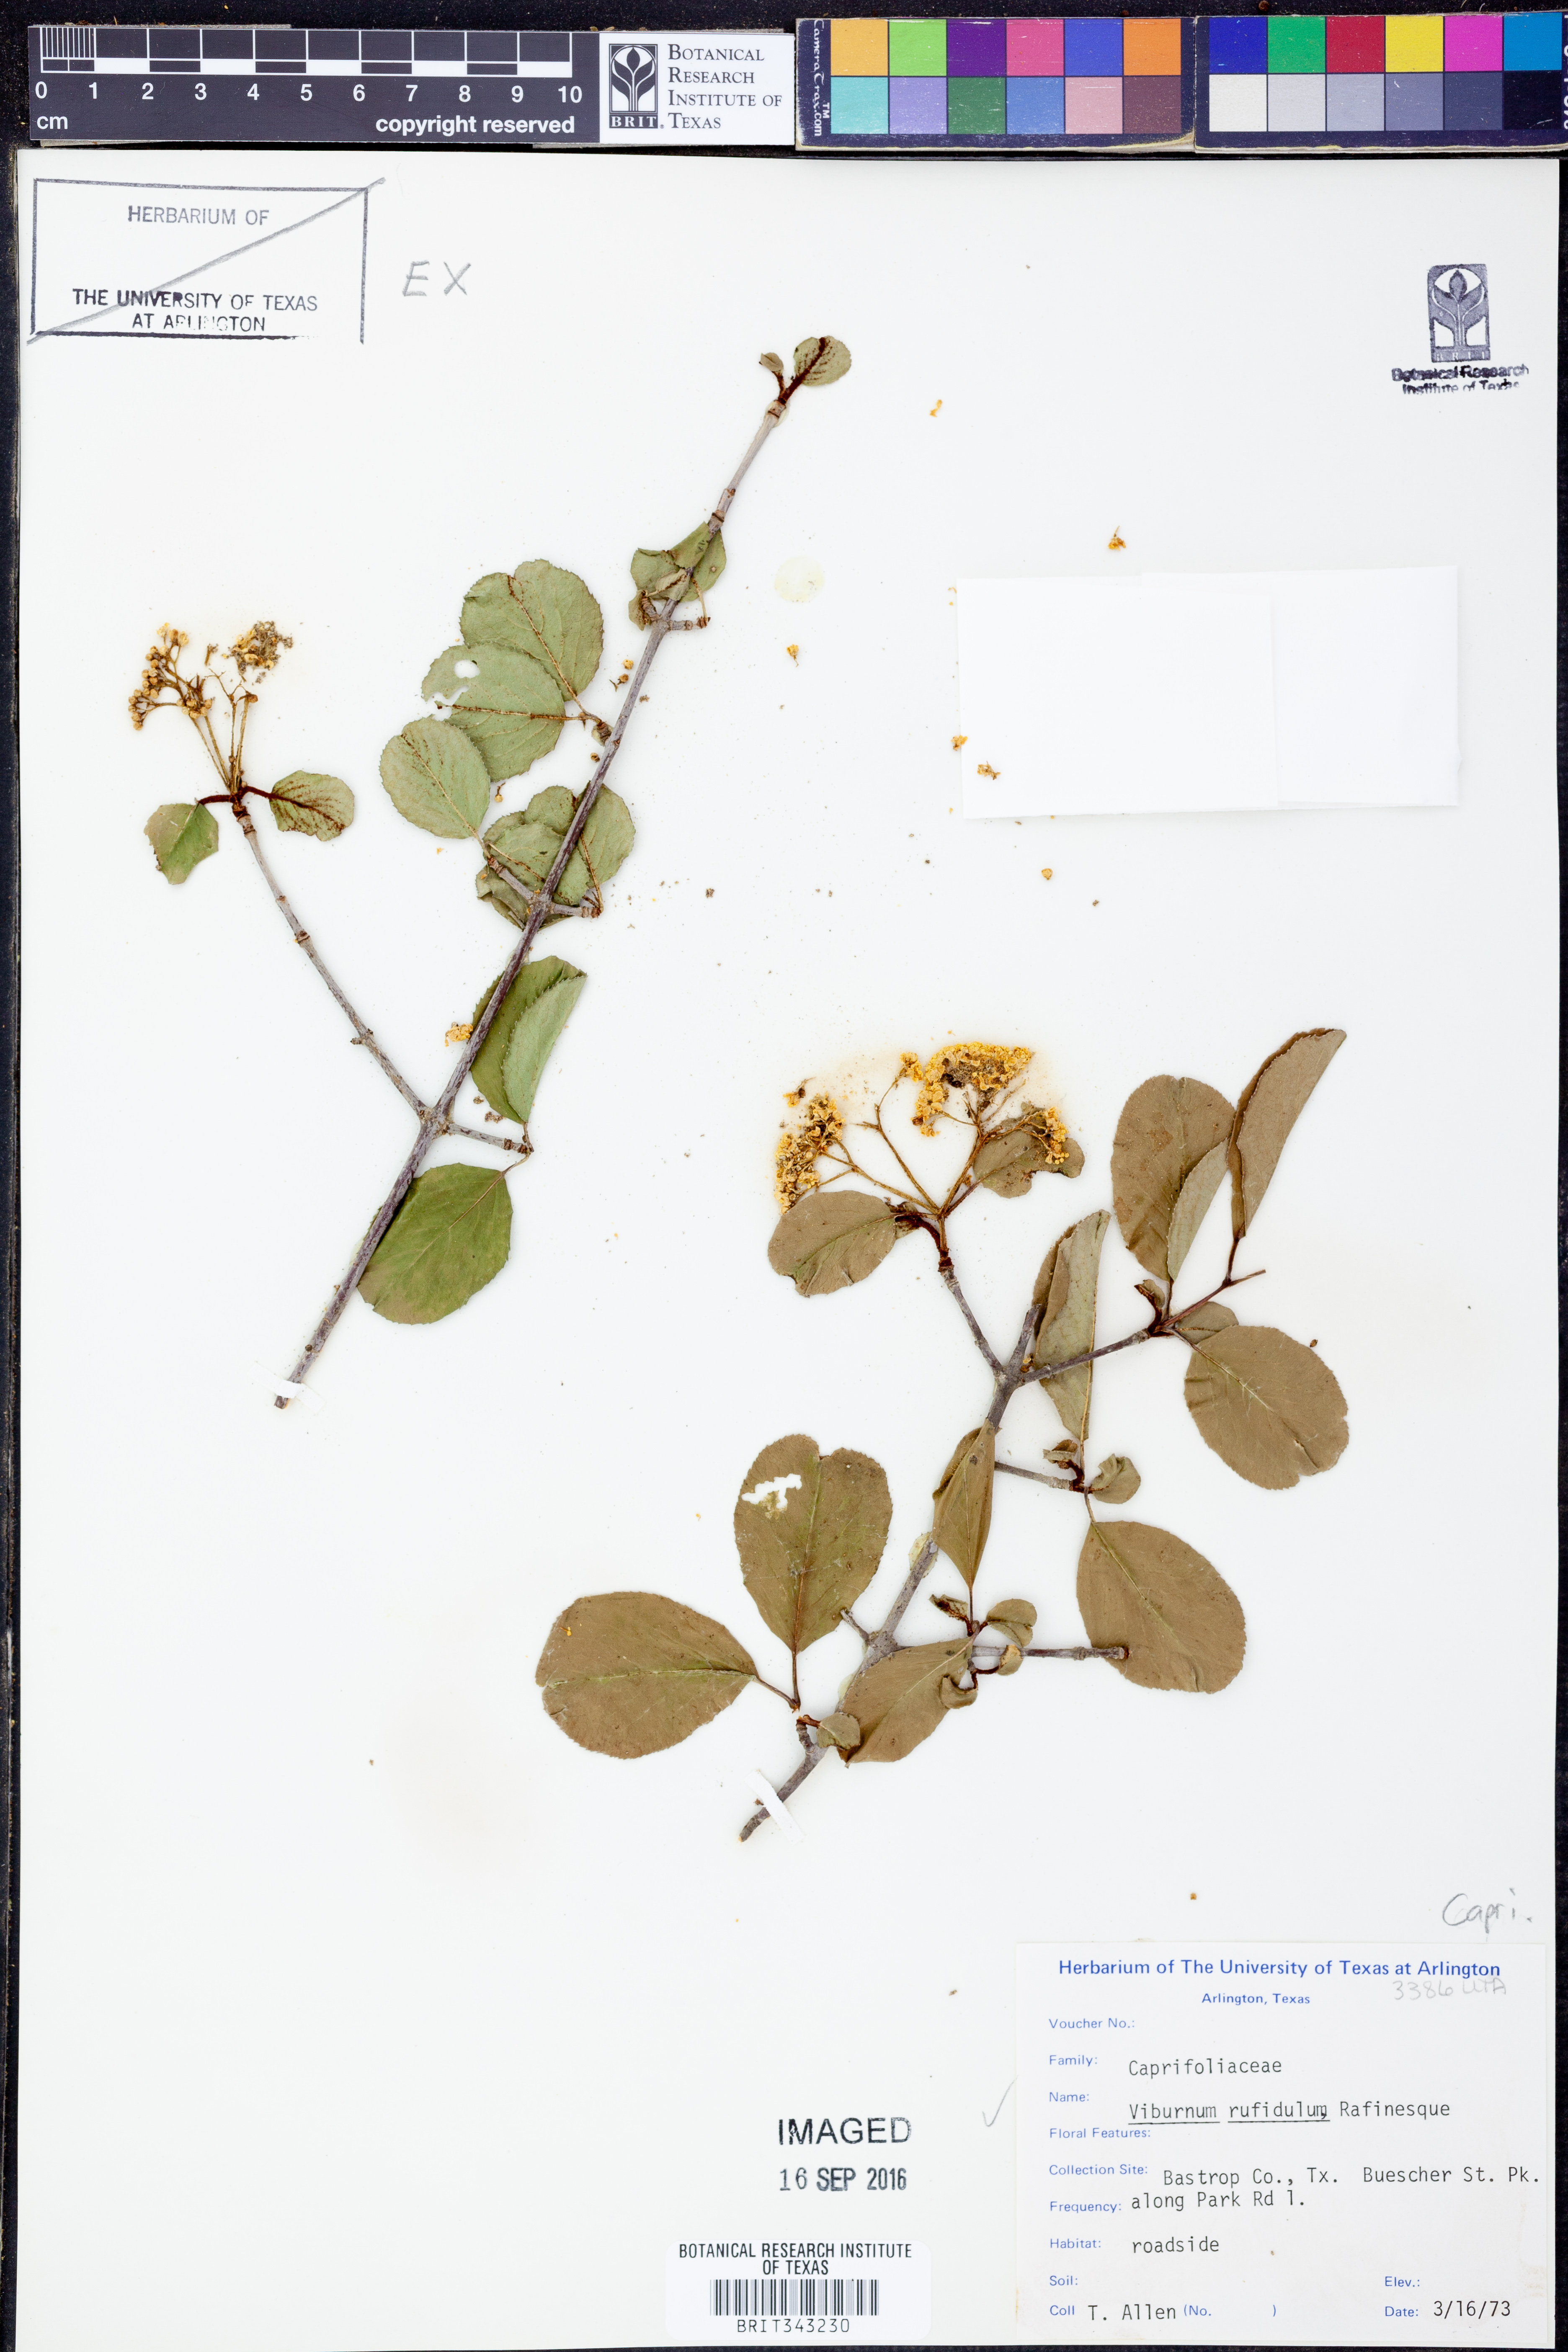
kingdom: Plantae
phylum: Tracheophyta
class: Magnoliopsida
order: Dipsacales
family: Viburnaceae
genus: Viburnum
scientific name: Viburnum rufidulum
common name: Blue haw
